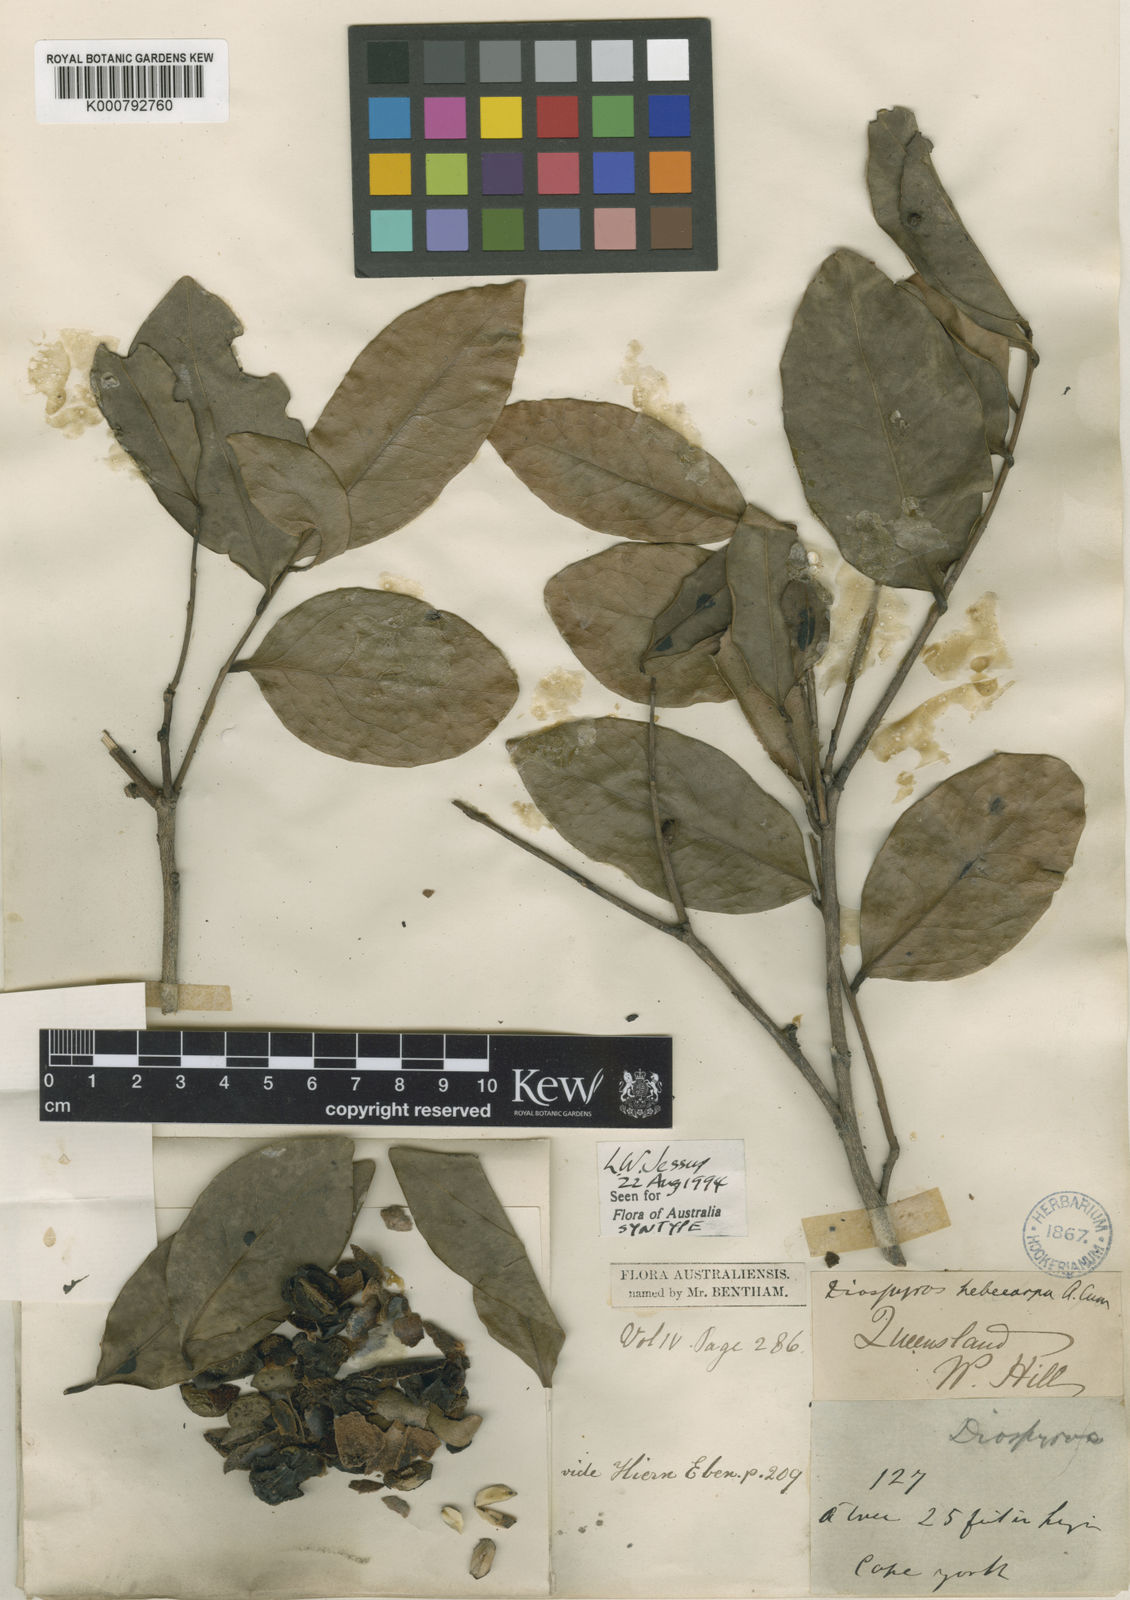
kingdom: Plantae
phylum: Tracheophyta
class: Magnoliopsida
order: Ericales
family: Ebenaceae
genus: Diospyros
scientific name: Diospyros hebecarpa
